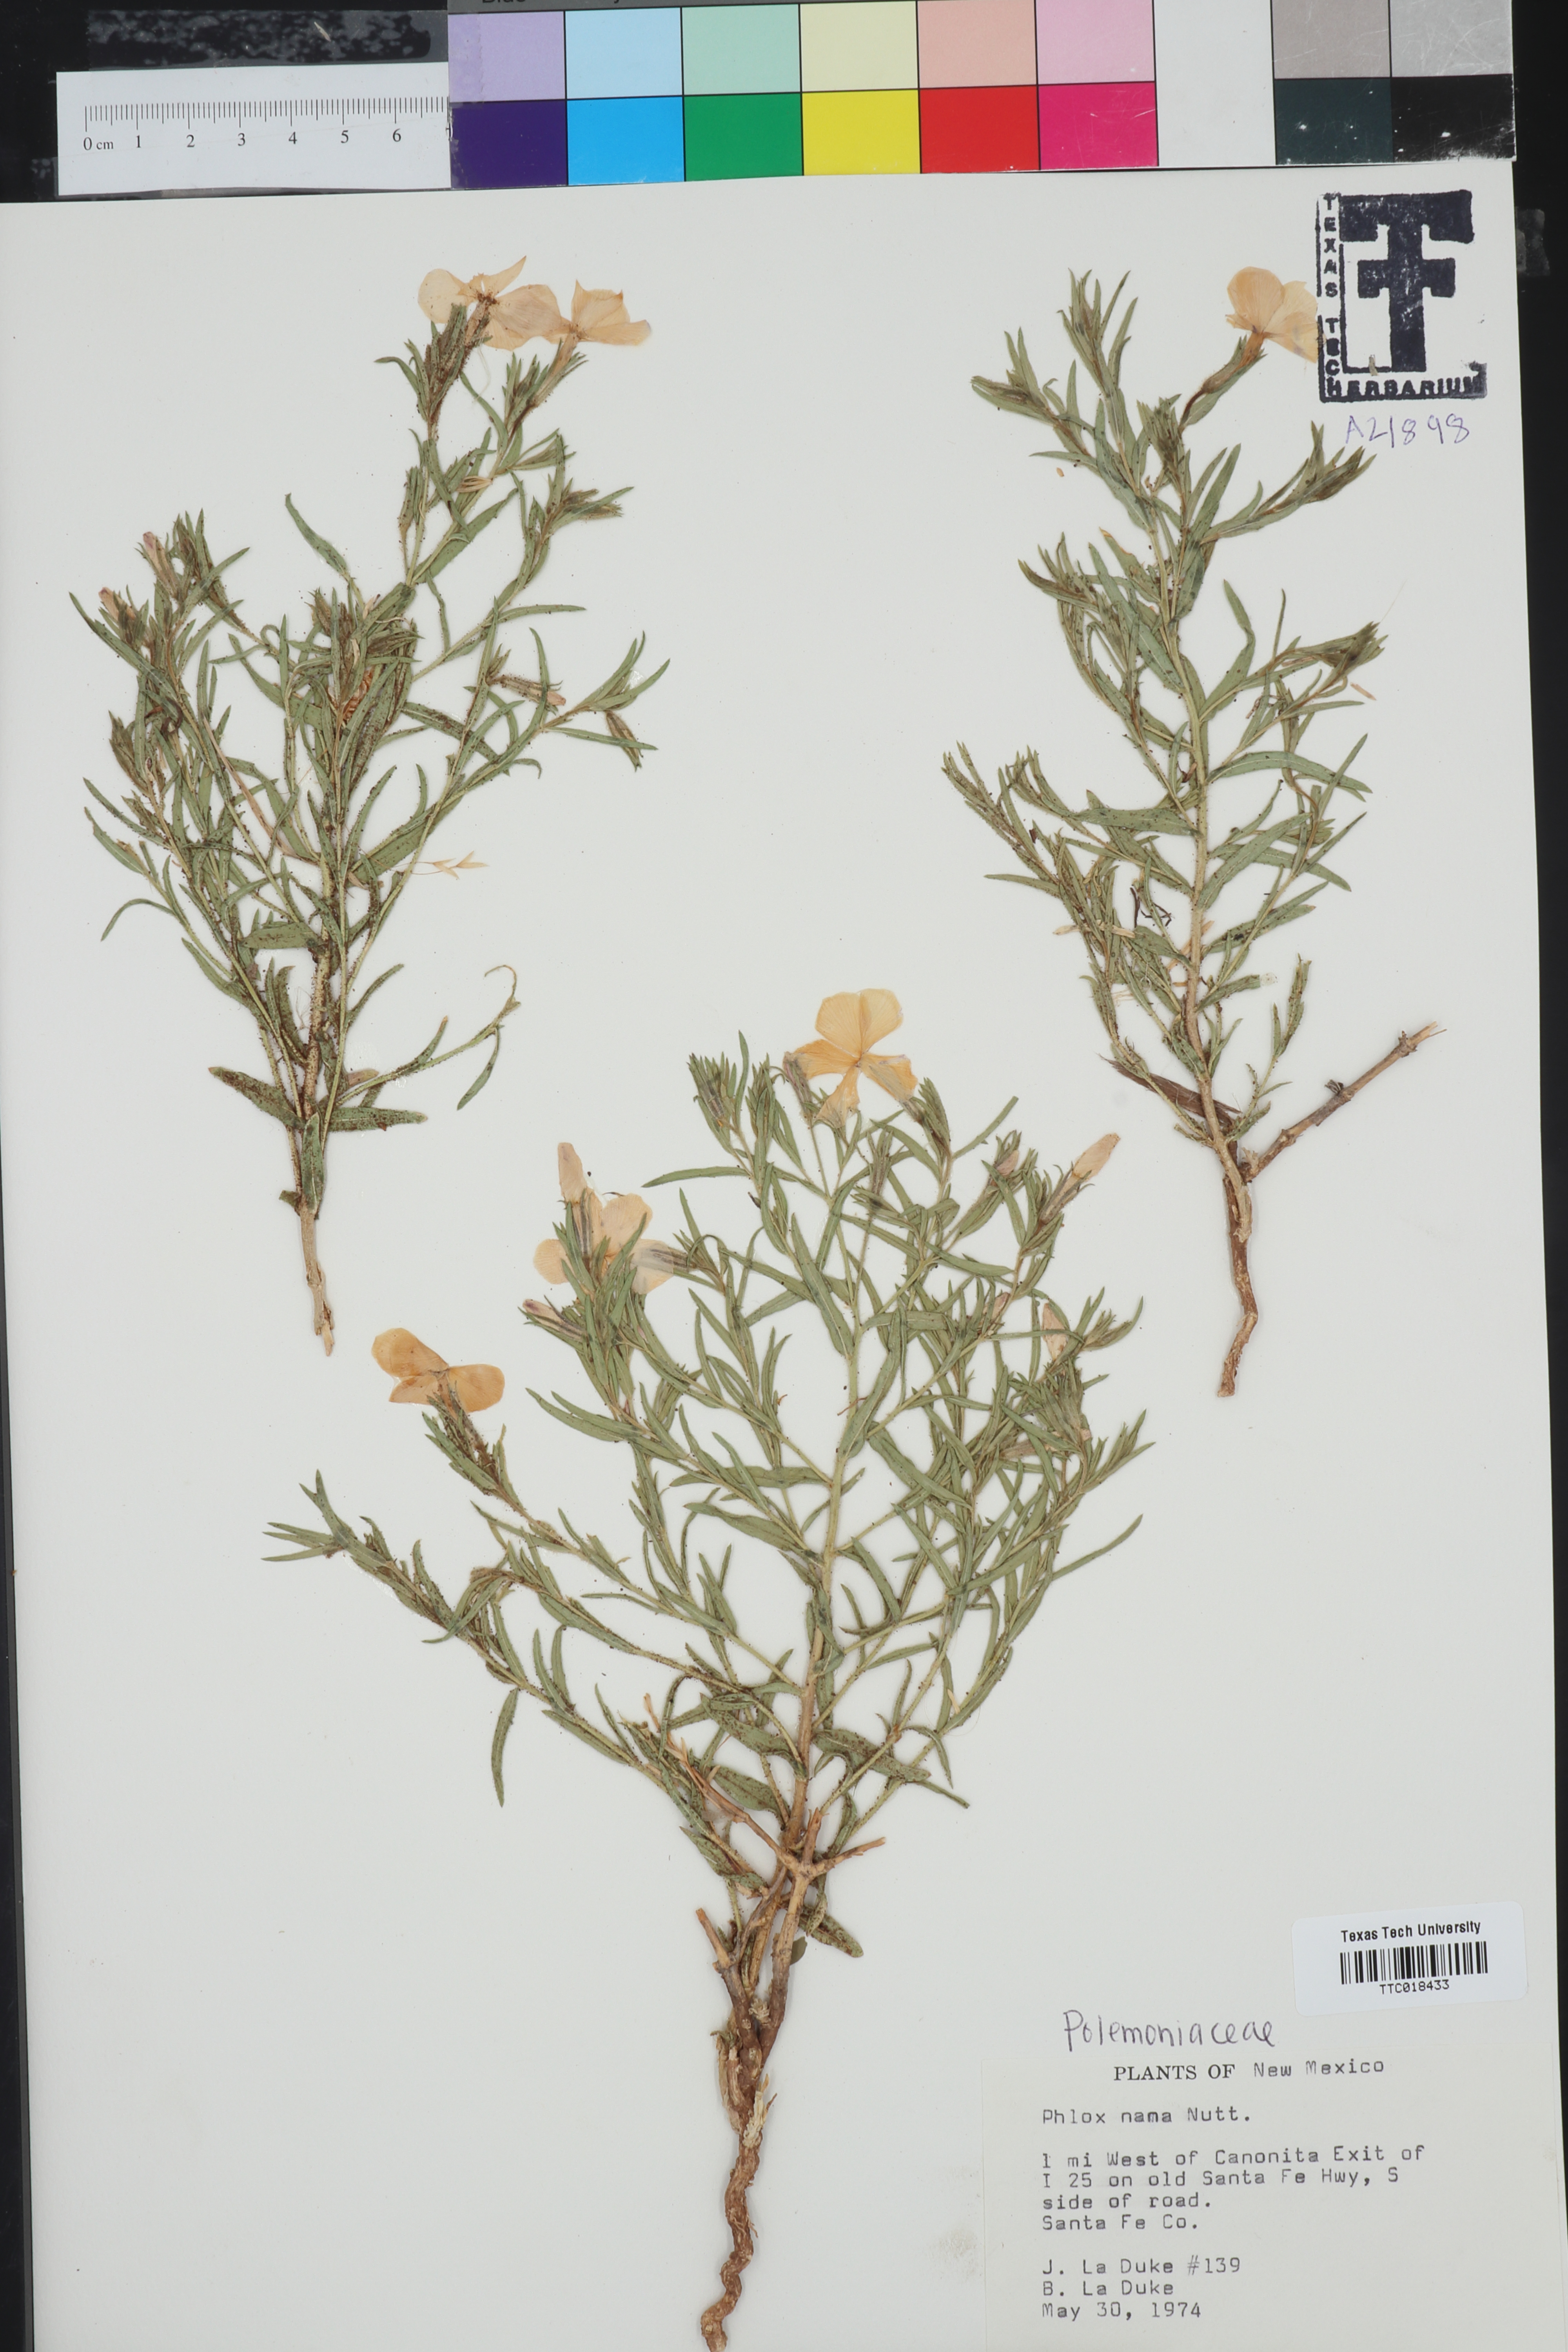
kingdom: Plantae
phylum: Tracheophyta
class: Magnoliopsida
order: Ericales
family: Polemoniaceae
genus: Phlox
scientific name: Phlox nana
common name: Santa fe phlox
